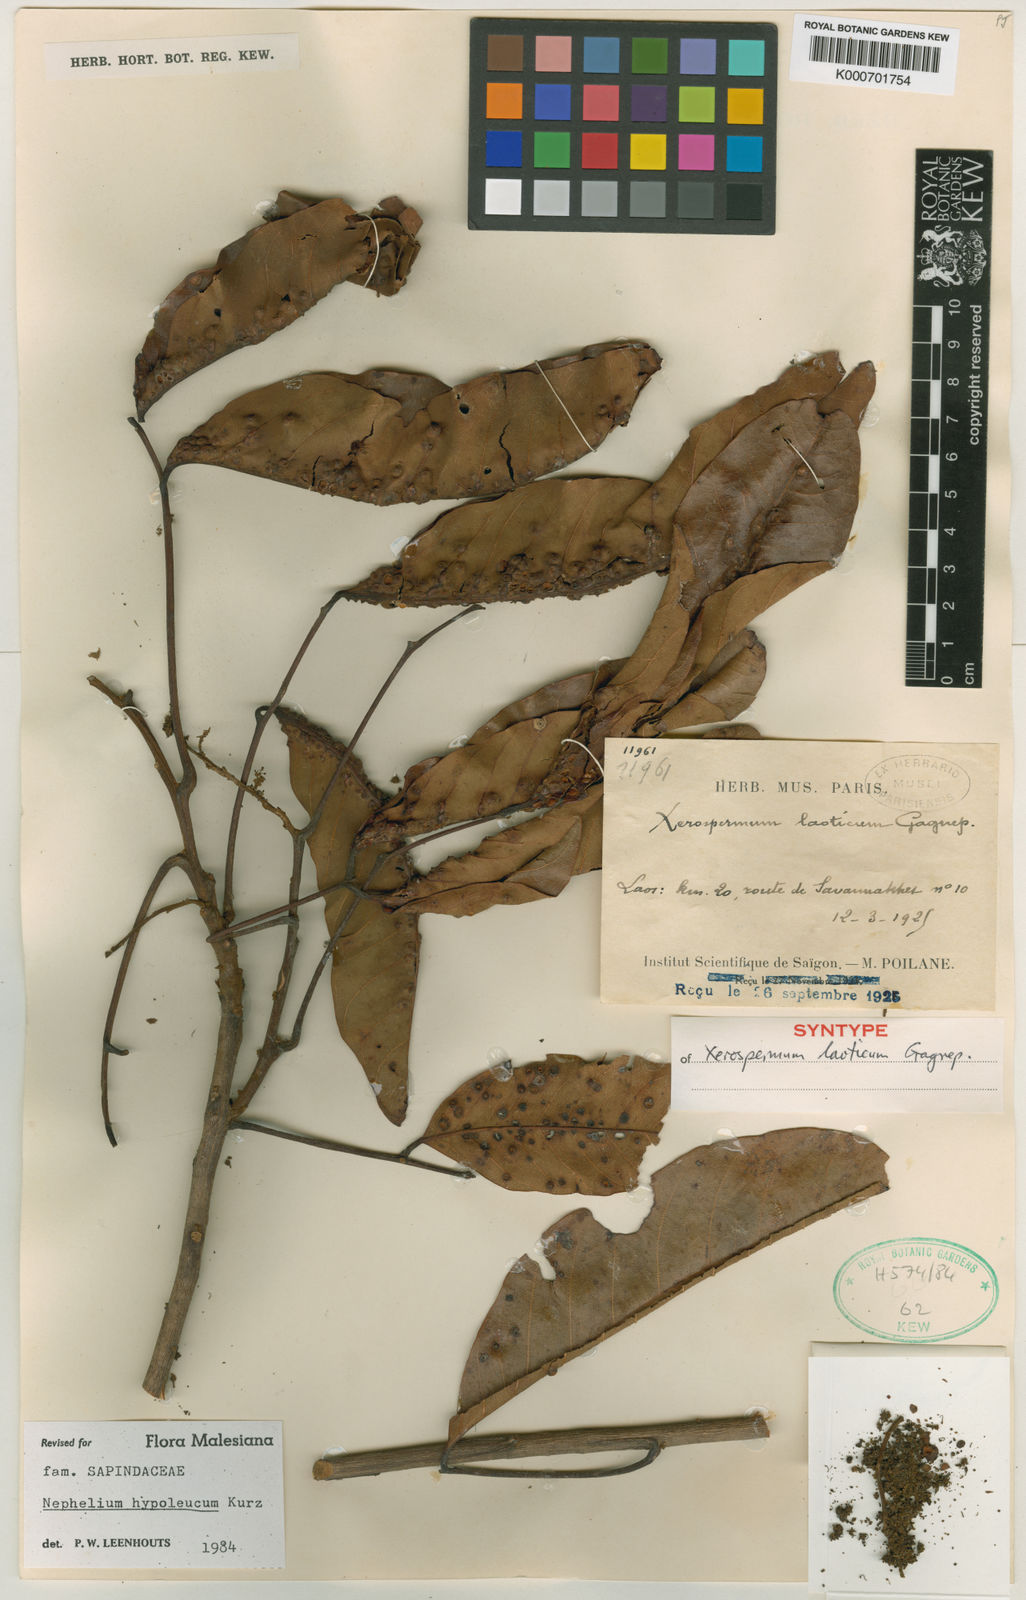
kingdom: Plantae
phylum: Tracheophyta
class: Magnoliopsida
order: Sapindales
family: Sapindaceae
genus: Nephelium
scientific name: Nephelium hypoleucum
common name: Korlan
